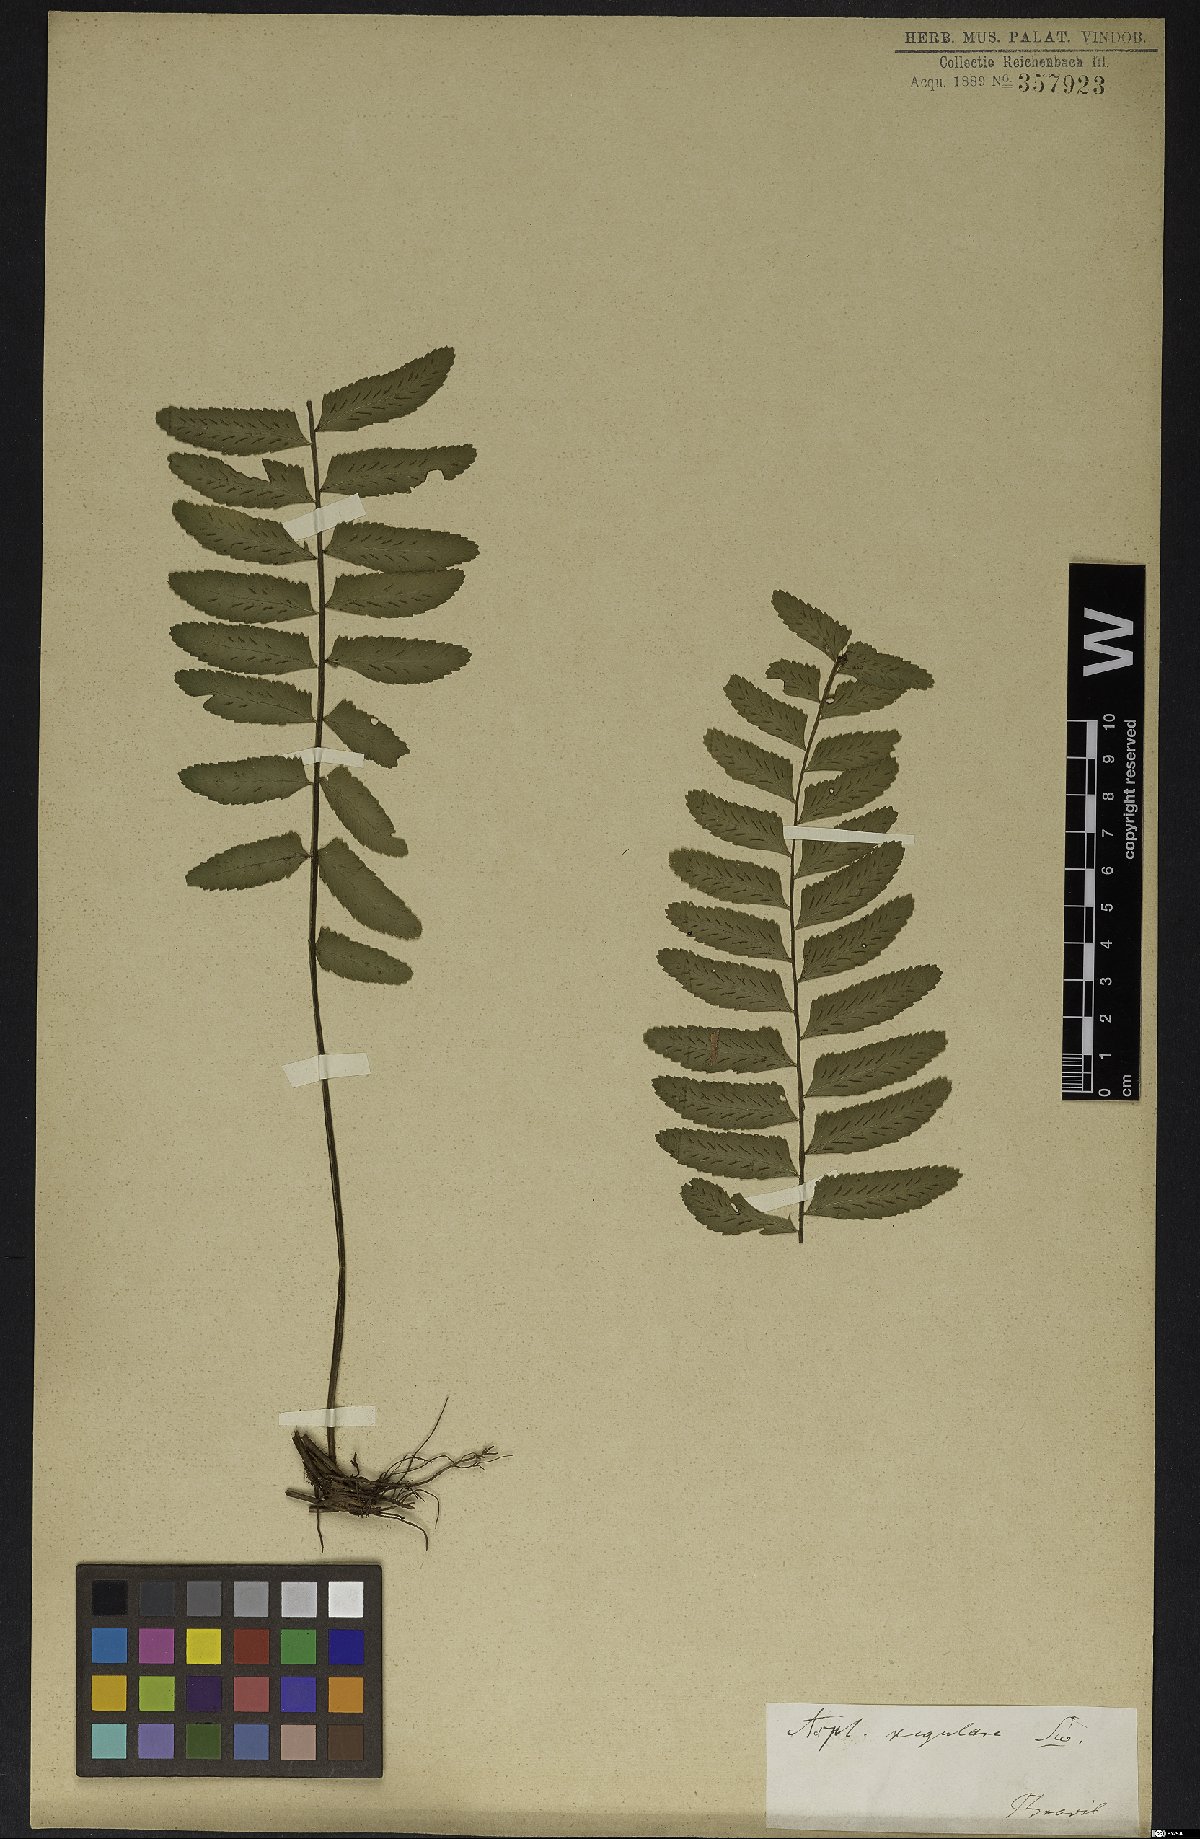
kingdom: Plantae
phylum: Tracheophyta
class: Polypodiopsida
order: Polypodiales
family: Aspleniaceae
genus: Asplenium
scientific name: Asplenium regulare
